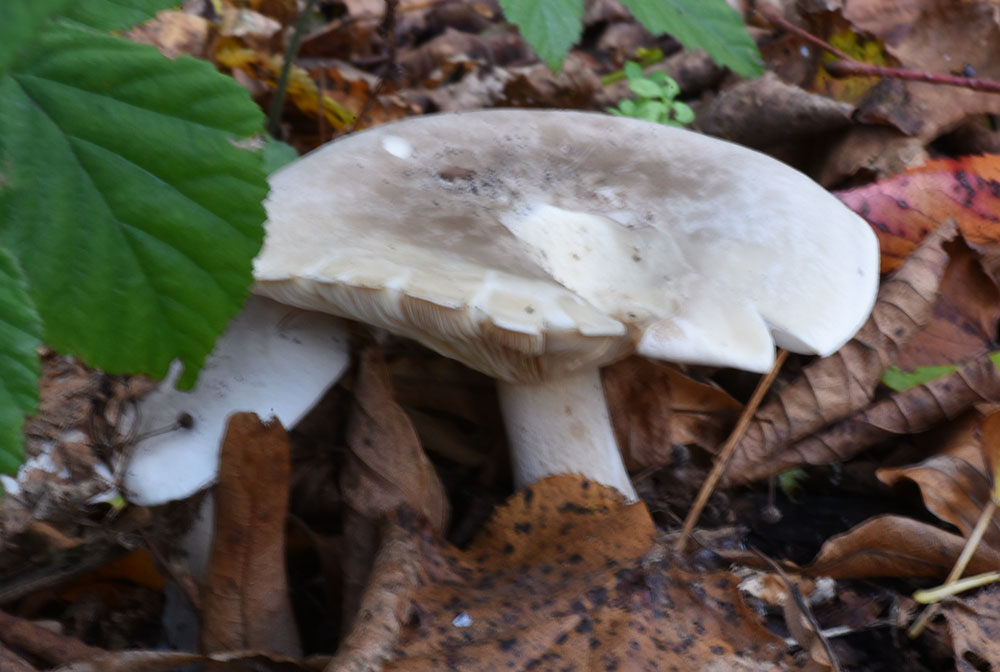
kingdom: Fungi
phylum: Basidiomycota
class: Agaricomycetes
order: Agaricales
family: Tricholomataceae
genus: Clitocybe
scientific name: Clitocybe nebularis
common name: Clouded agaric
